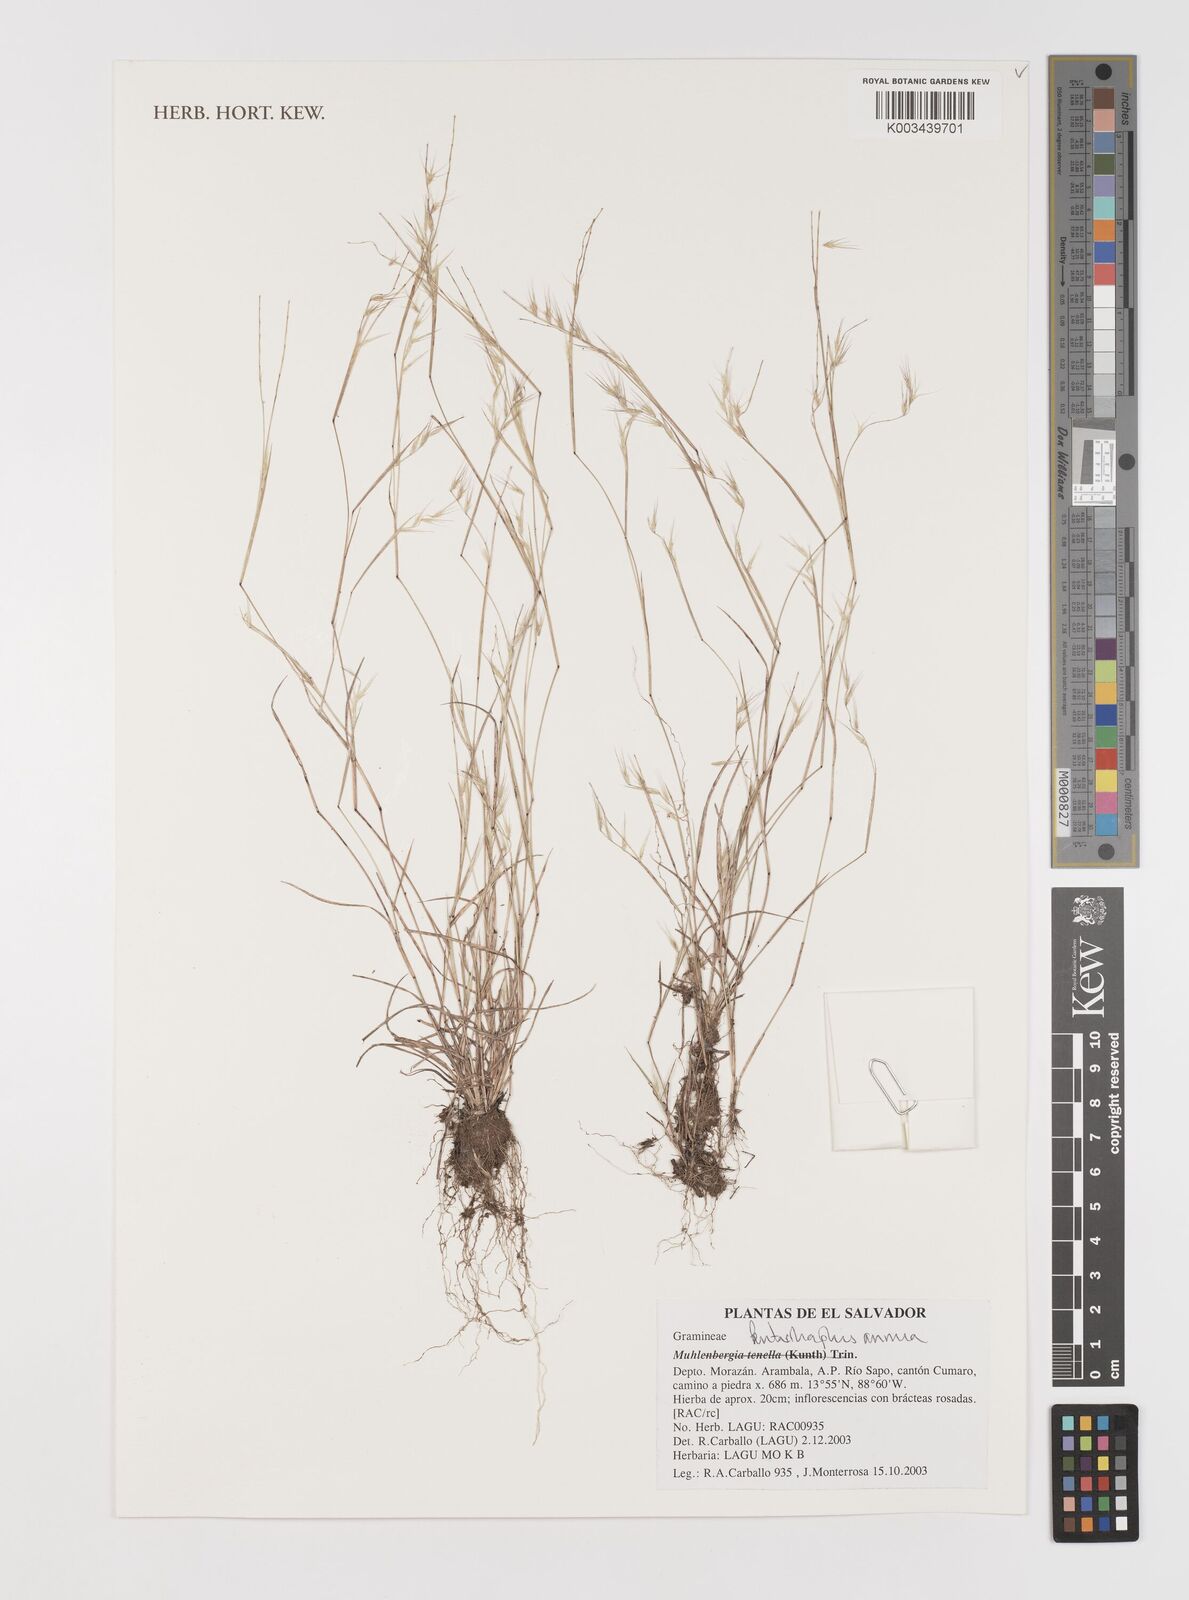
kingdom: Plantae
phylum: Tracheophyta
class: Liliopsida
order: Poales
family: Poaceae
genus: Bouteloua
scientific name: Bouteloua swallenii
